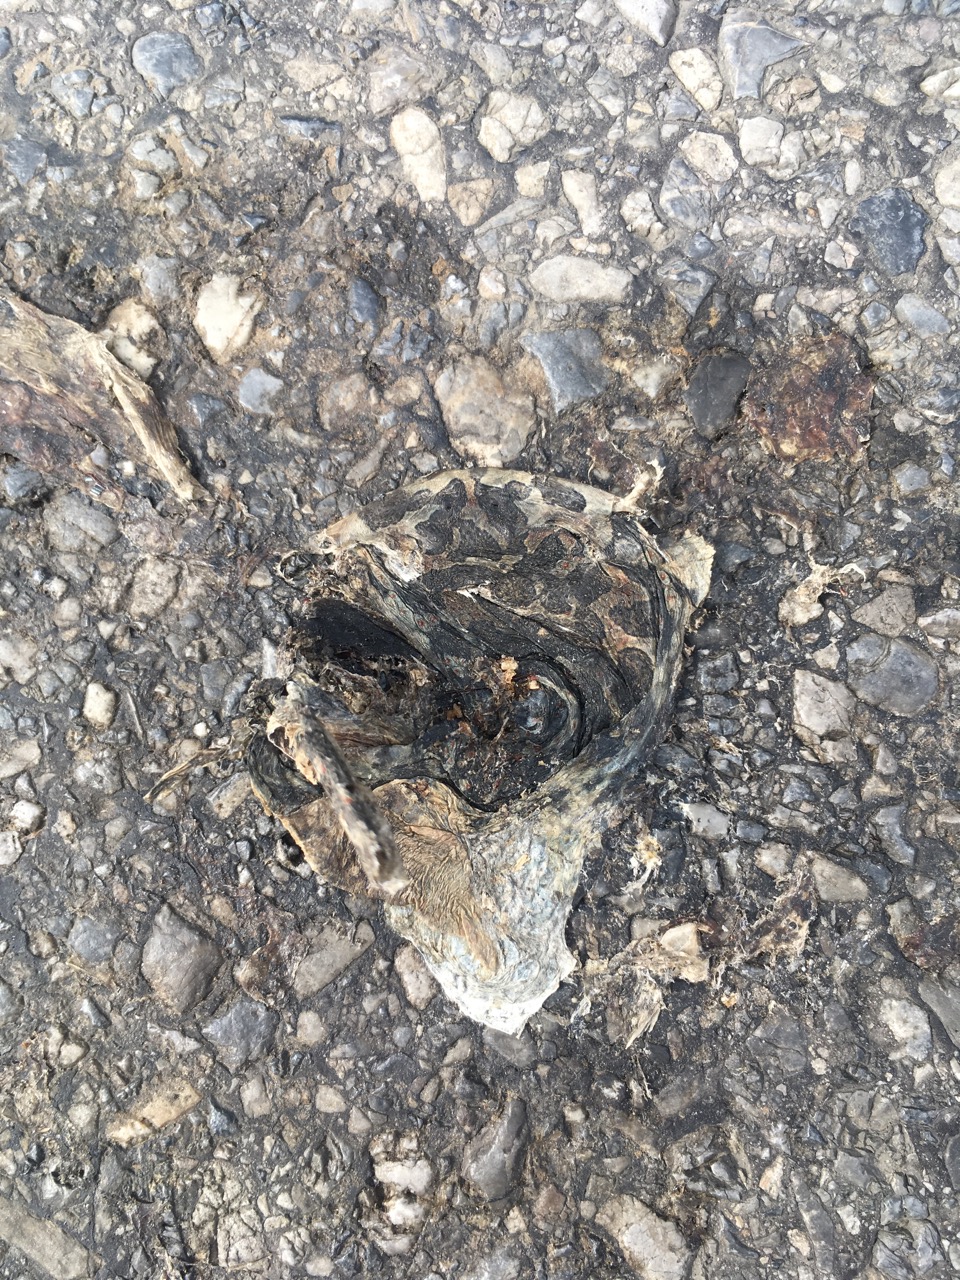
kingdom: Animalia
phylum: Chordata
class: Amphibia
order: Anura
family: Bufonidae
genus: Bufotes
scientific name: Bufotes viridis
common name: European green toad
